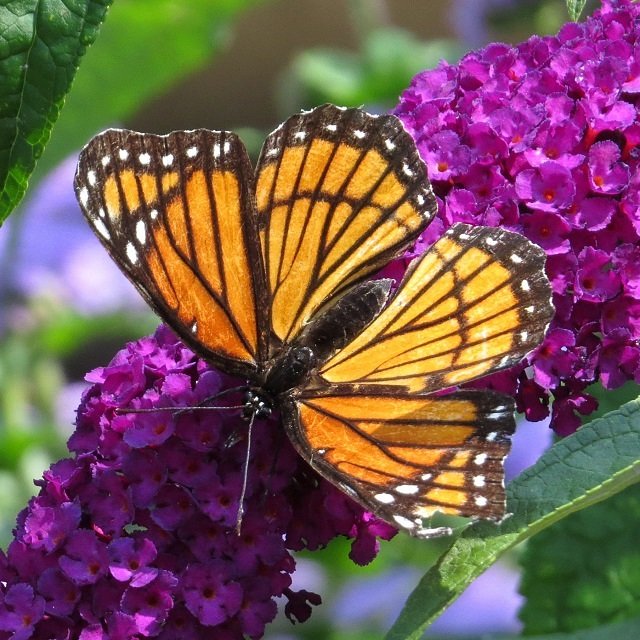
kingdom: Animalia
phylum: Arthropoda
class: Insecta
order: Lepidoptera
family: Nymphalidae
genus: Limenitis
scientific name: Limenitis archippus
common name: Viceroy
